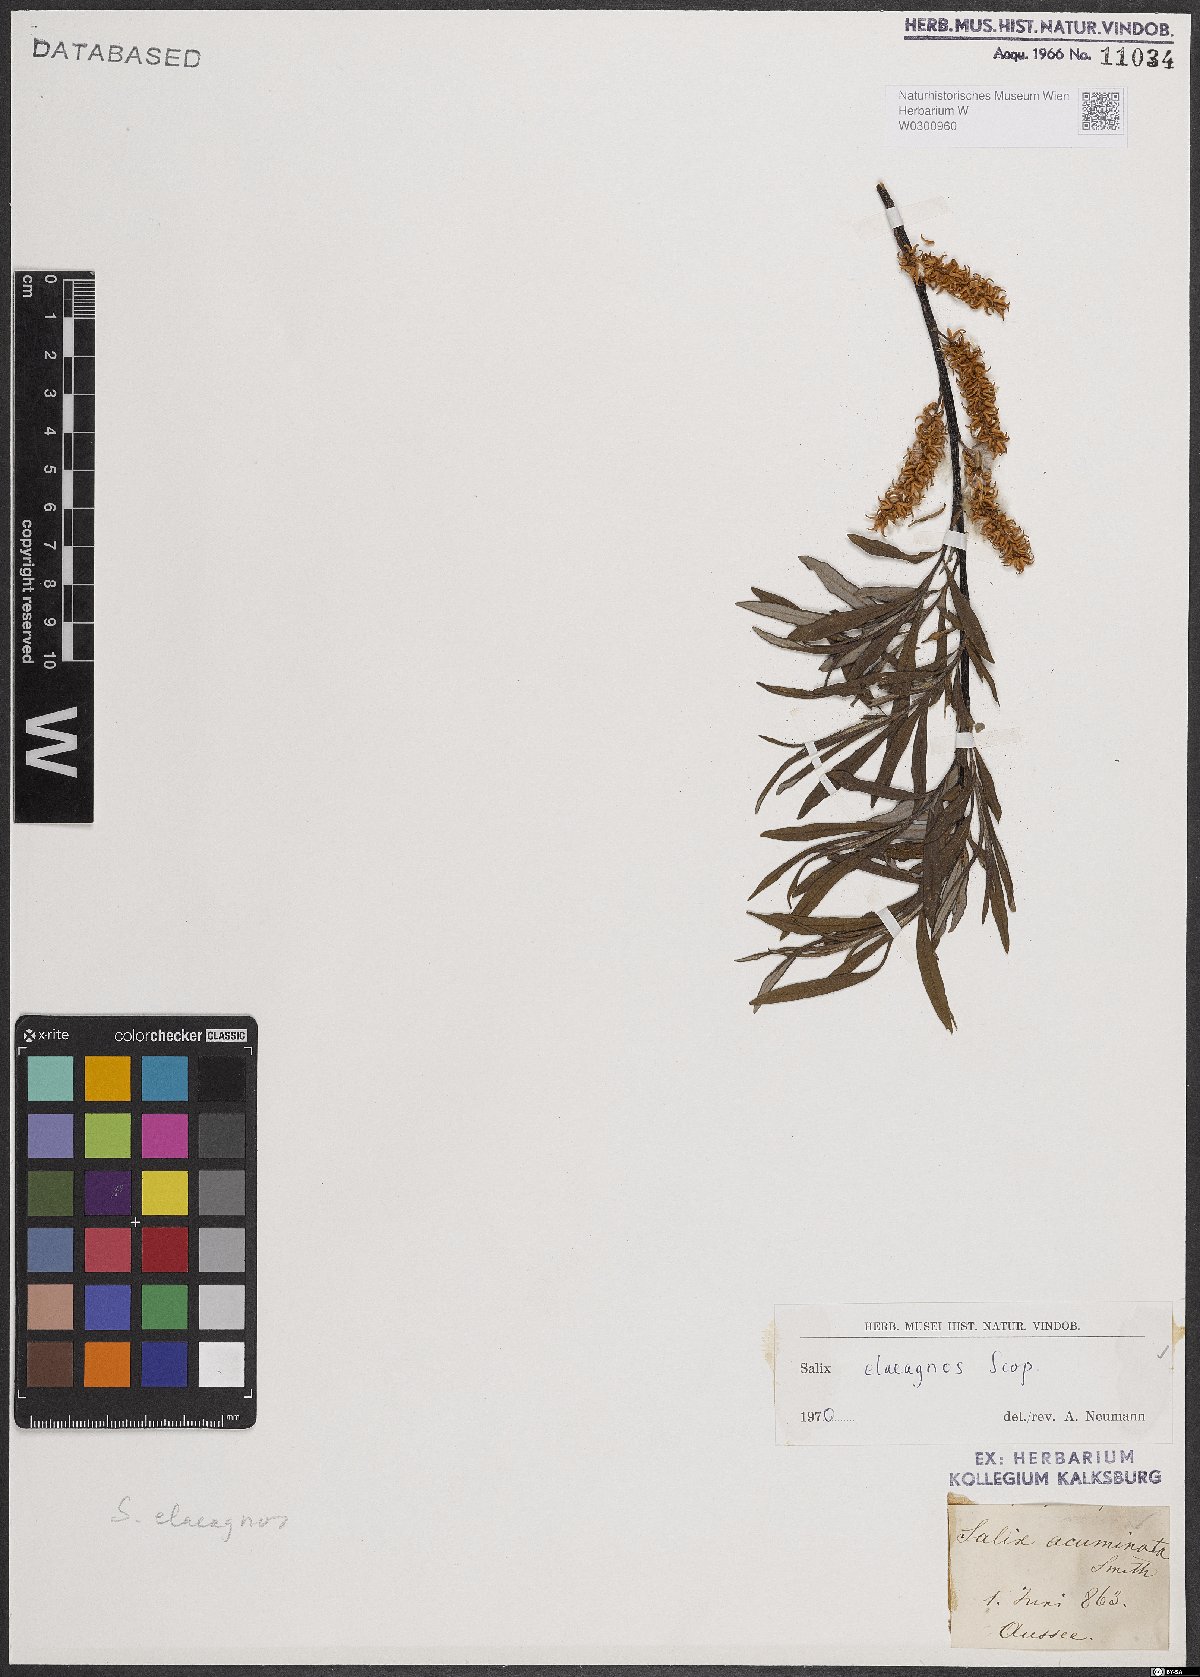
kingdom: Plantae
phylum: Tracheophyta
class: Magnoliopsida
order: Malpighiales
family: Salicaceae
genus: Salix
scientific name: Salix eleagnos
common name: Elaeagnus willow
